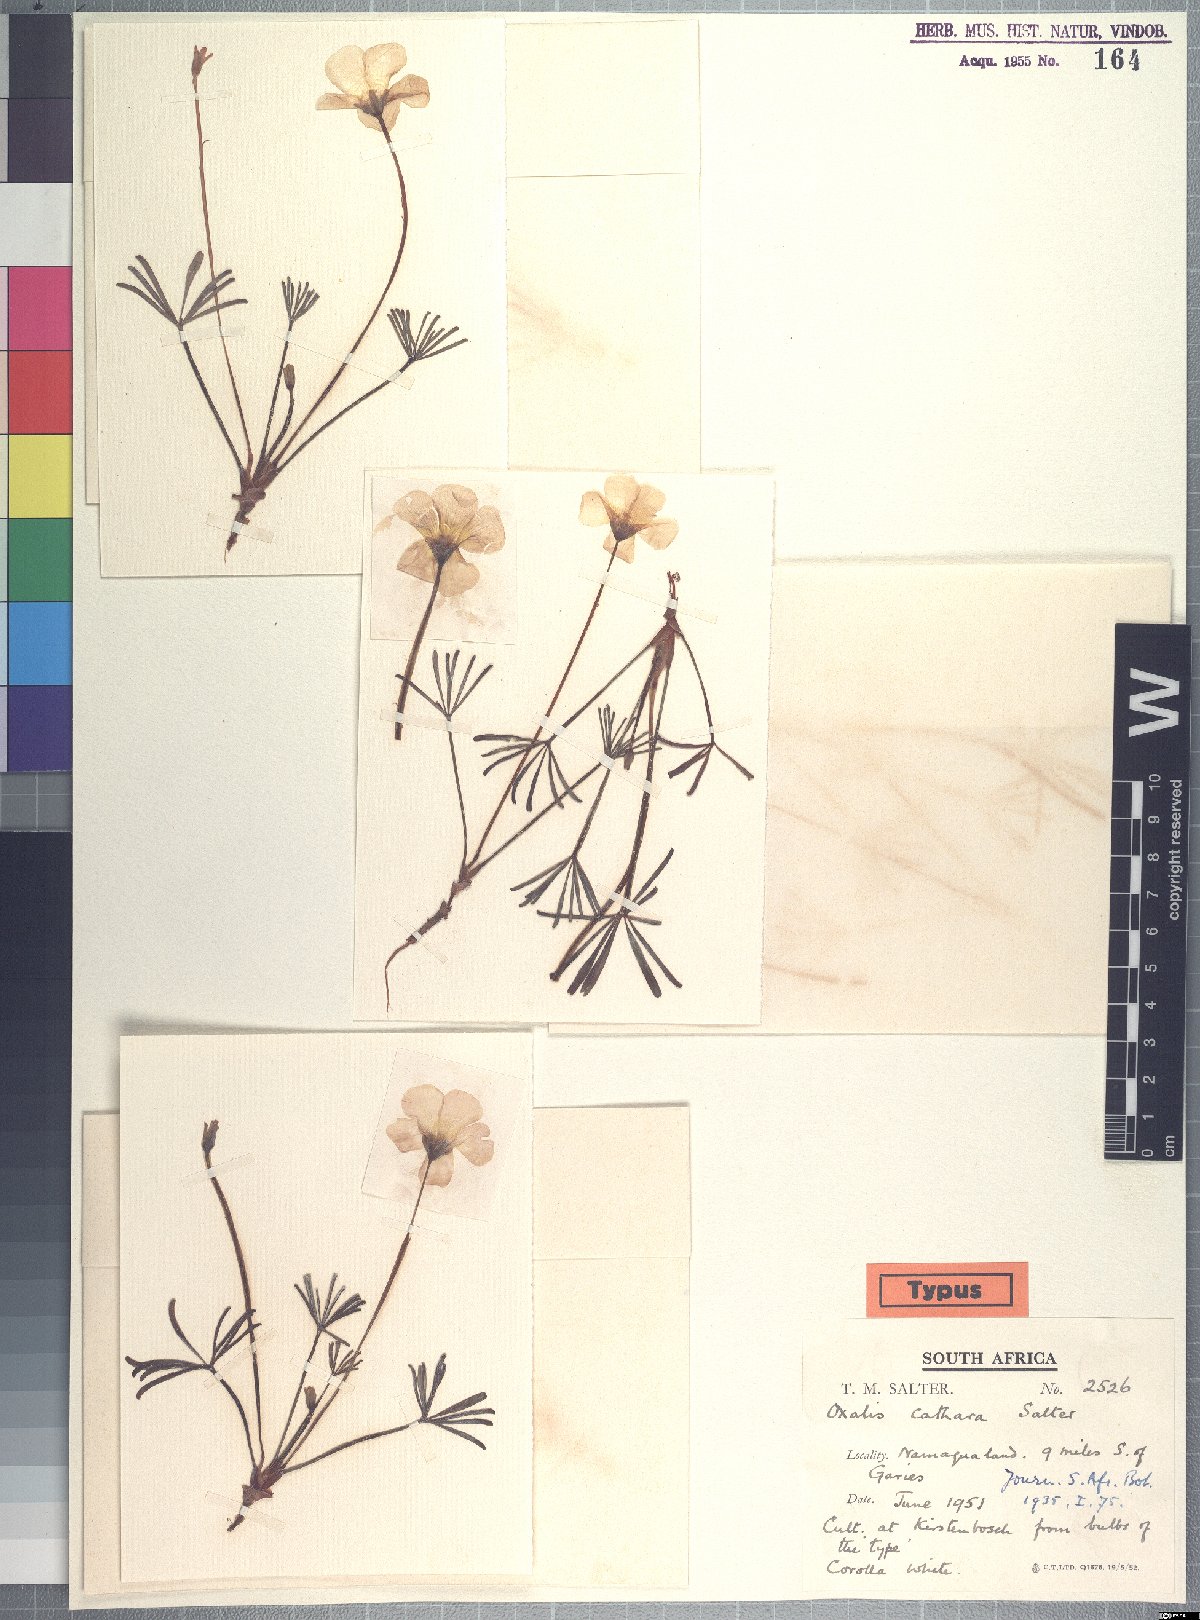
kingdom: Plantae
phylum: Tracheophyta
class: Magnoliopsida
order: Oxalidales
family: Oxalidaceae
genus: Oxalis
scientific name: Oxalis cathara
